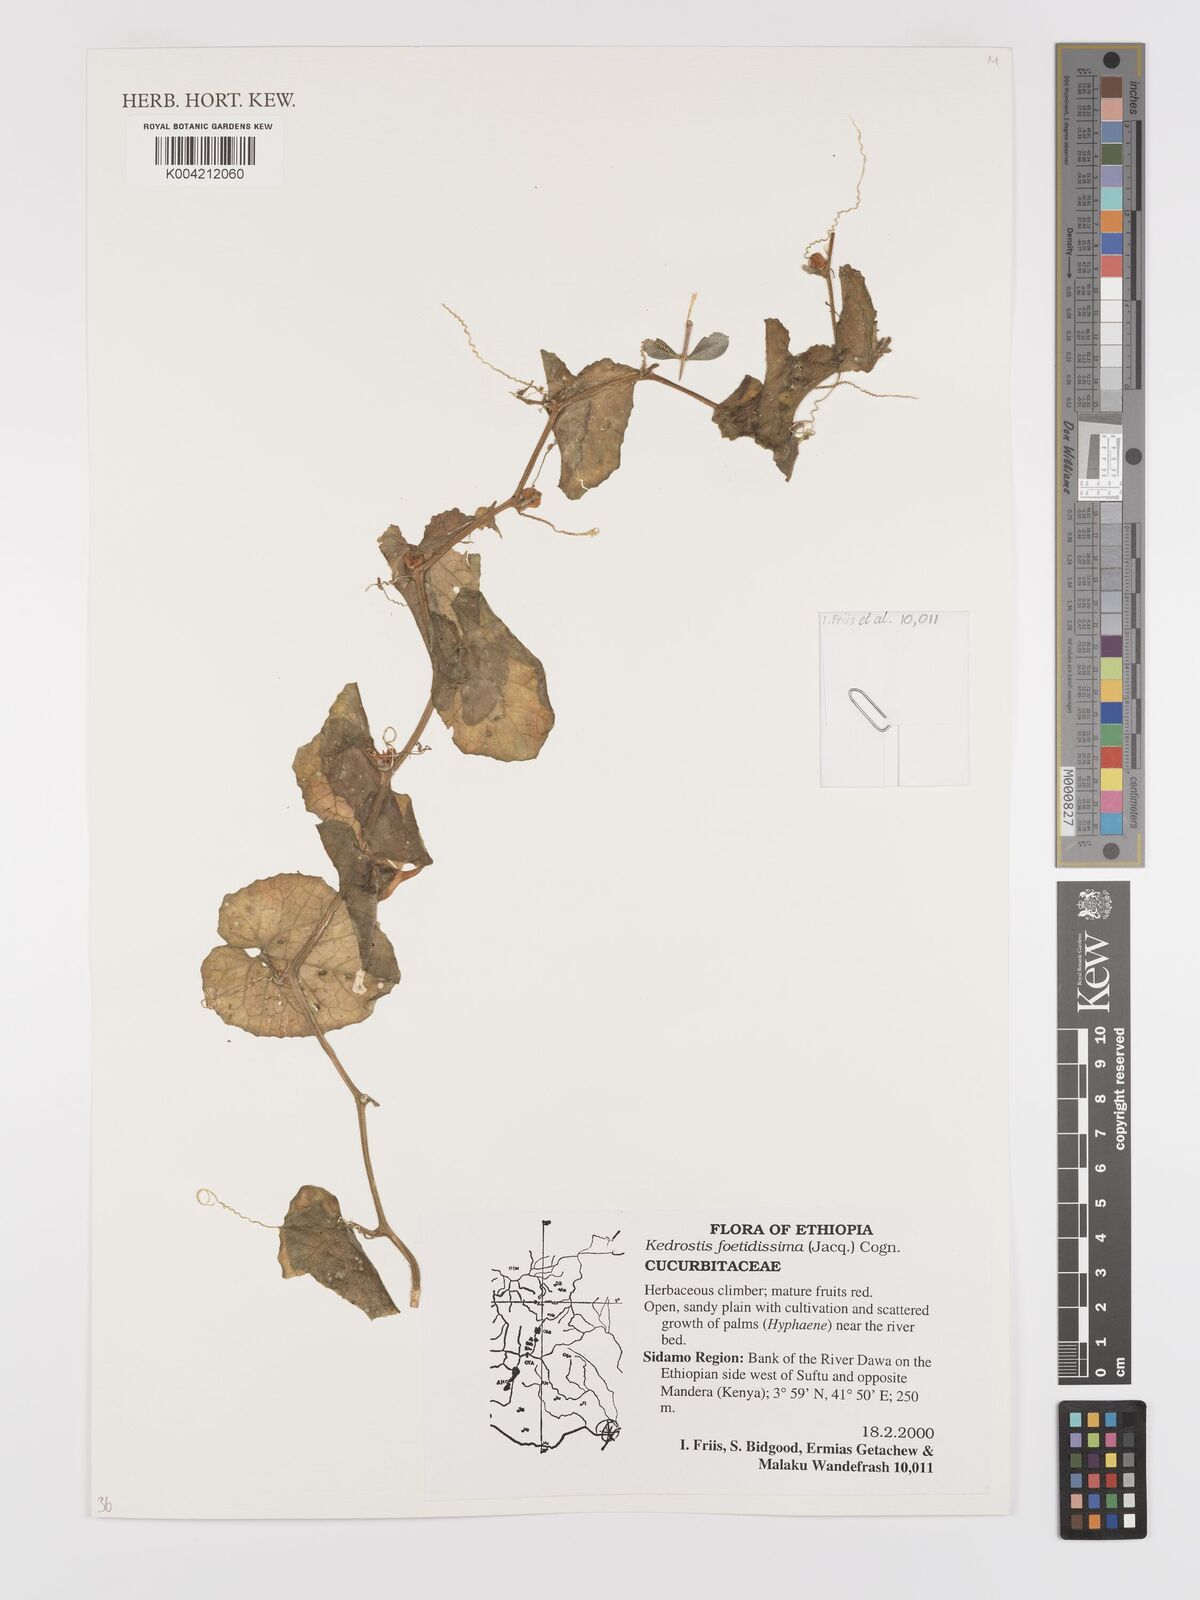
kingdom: Plantae
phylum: Tracheophyta
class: Magnoliopsida
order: Cucurbitales
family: Cucurbitaceae
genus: Kedrostis
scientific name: Kedrostis foetidissima
